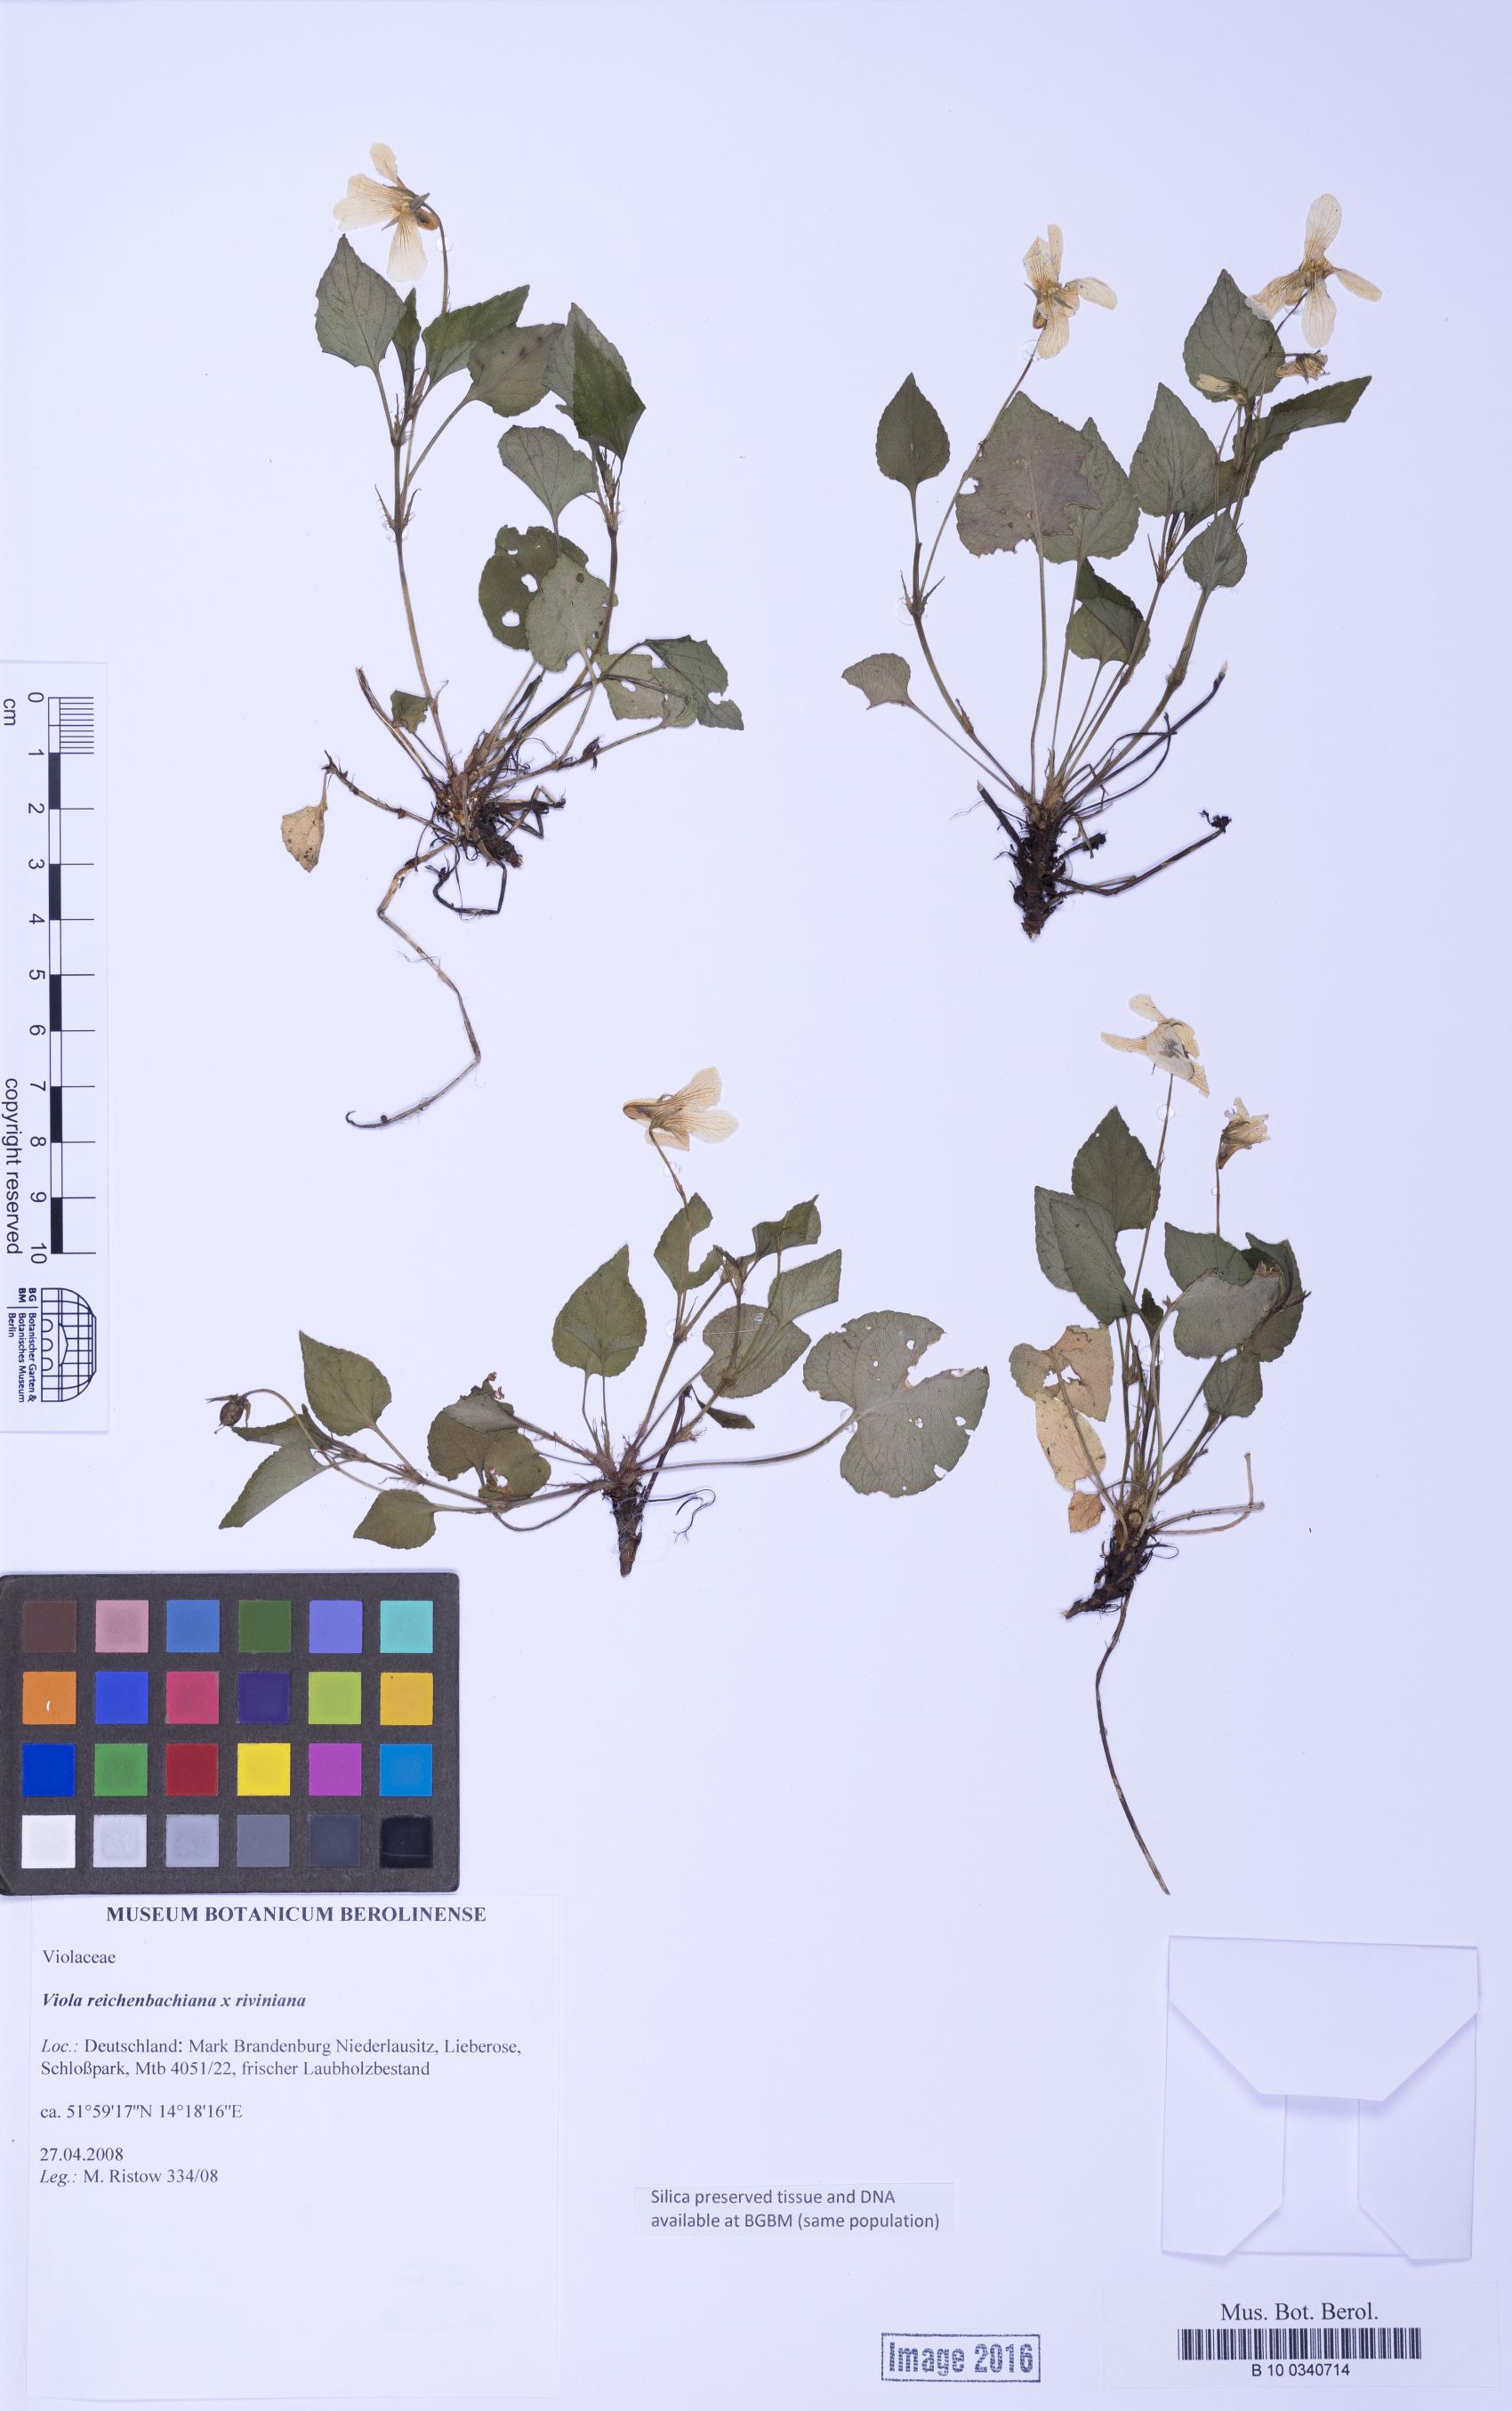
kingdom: Plantae
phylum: Tracheophyta
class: Magnoliopsida
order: Malpighiales
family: Violaceae
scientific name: Violaceae
